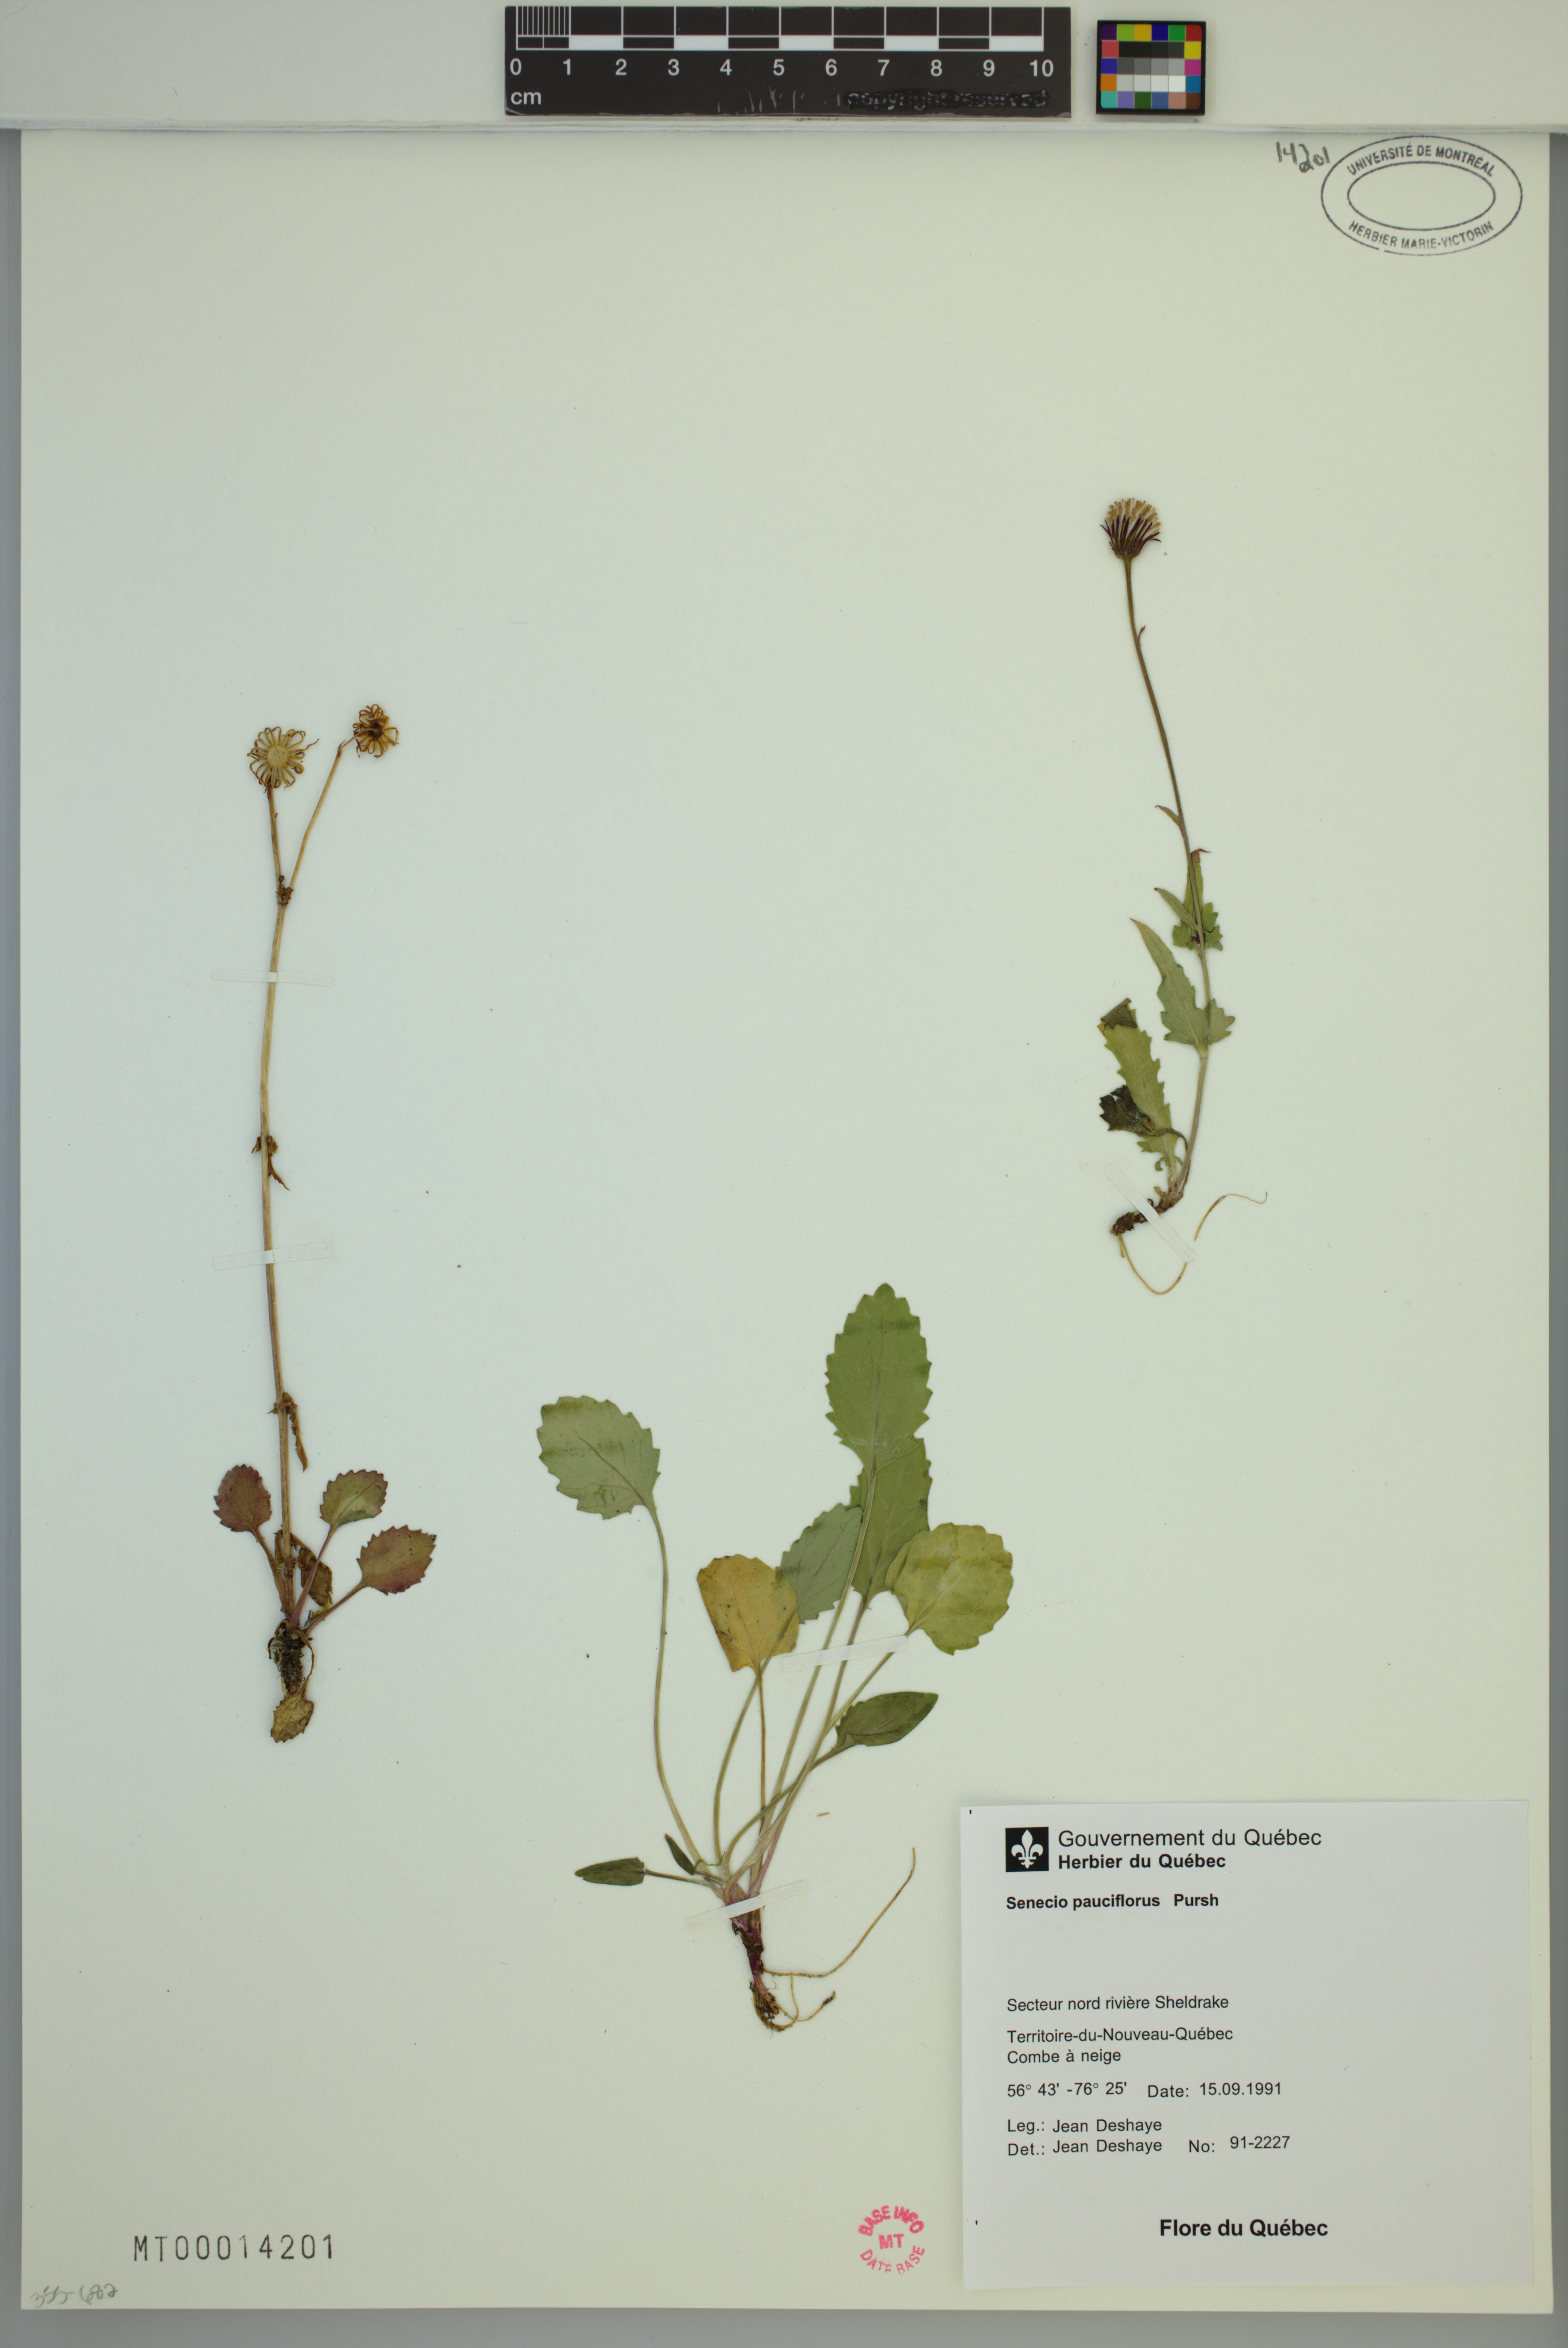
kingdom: Plantae
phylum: Tracheophyta
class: Magnoliopsida
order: Asterales
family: Asteraceae
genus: Packera
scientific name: Packera pauciflora
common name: Alpine groundsel
